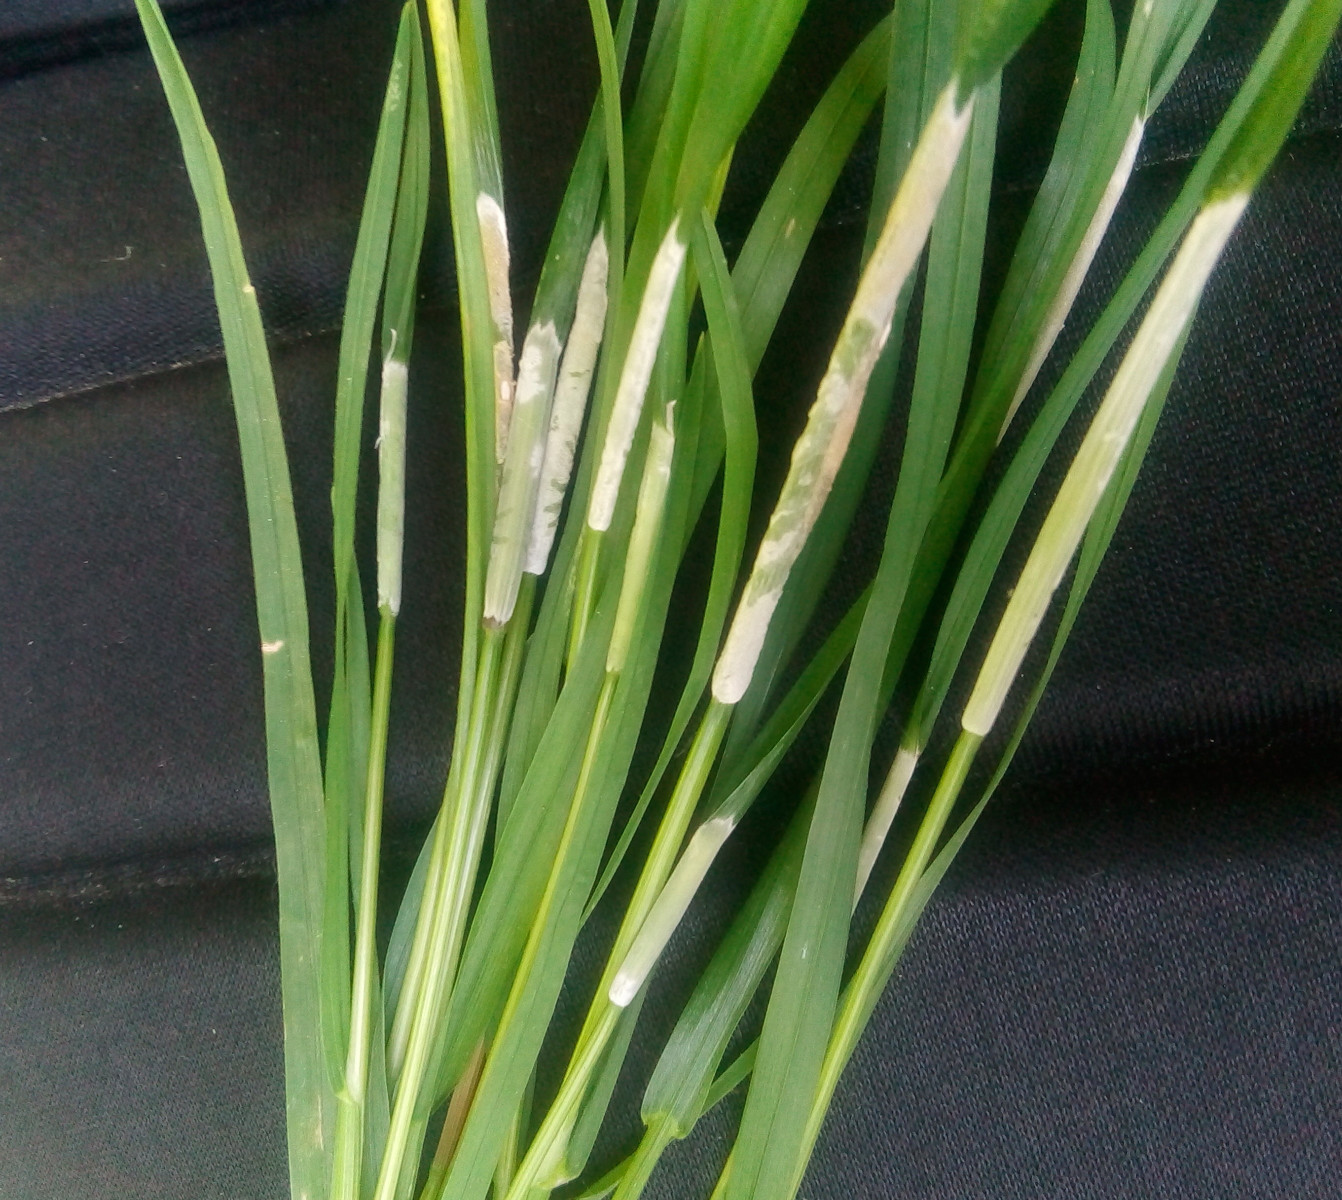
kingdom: Fungi
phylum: Ascomycota
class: Sordariomycetes
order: Hypocreales
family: Clavicipitaceae
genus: Epichloe
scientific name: Epichloe typhina
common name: almindelig kernerør
